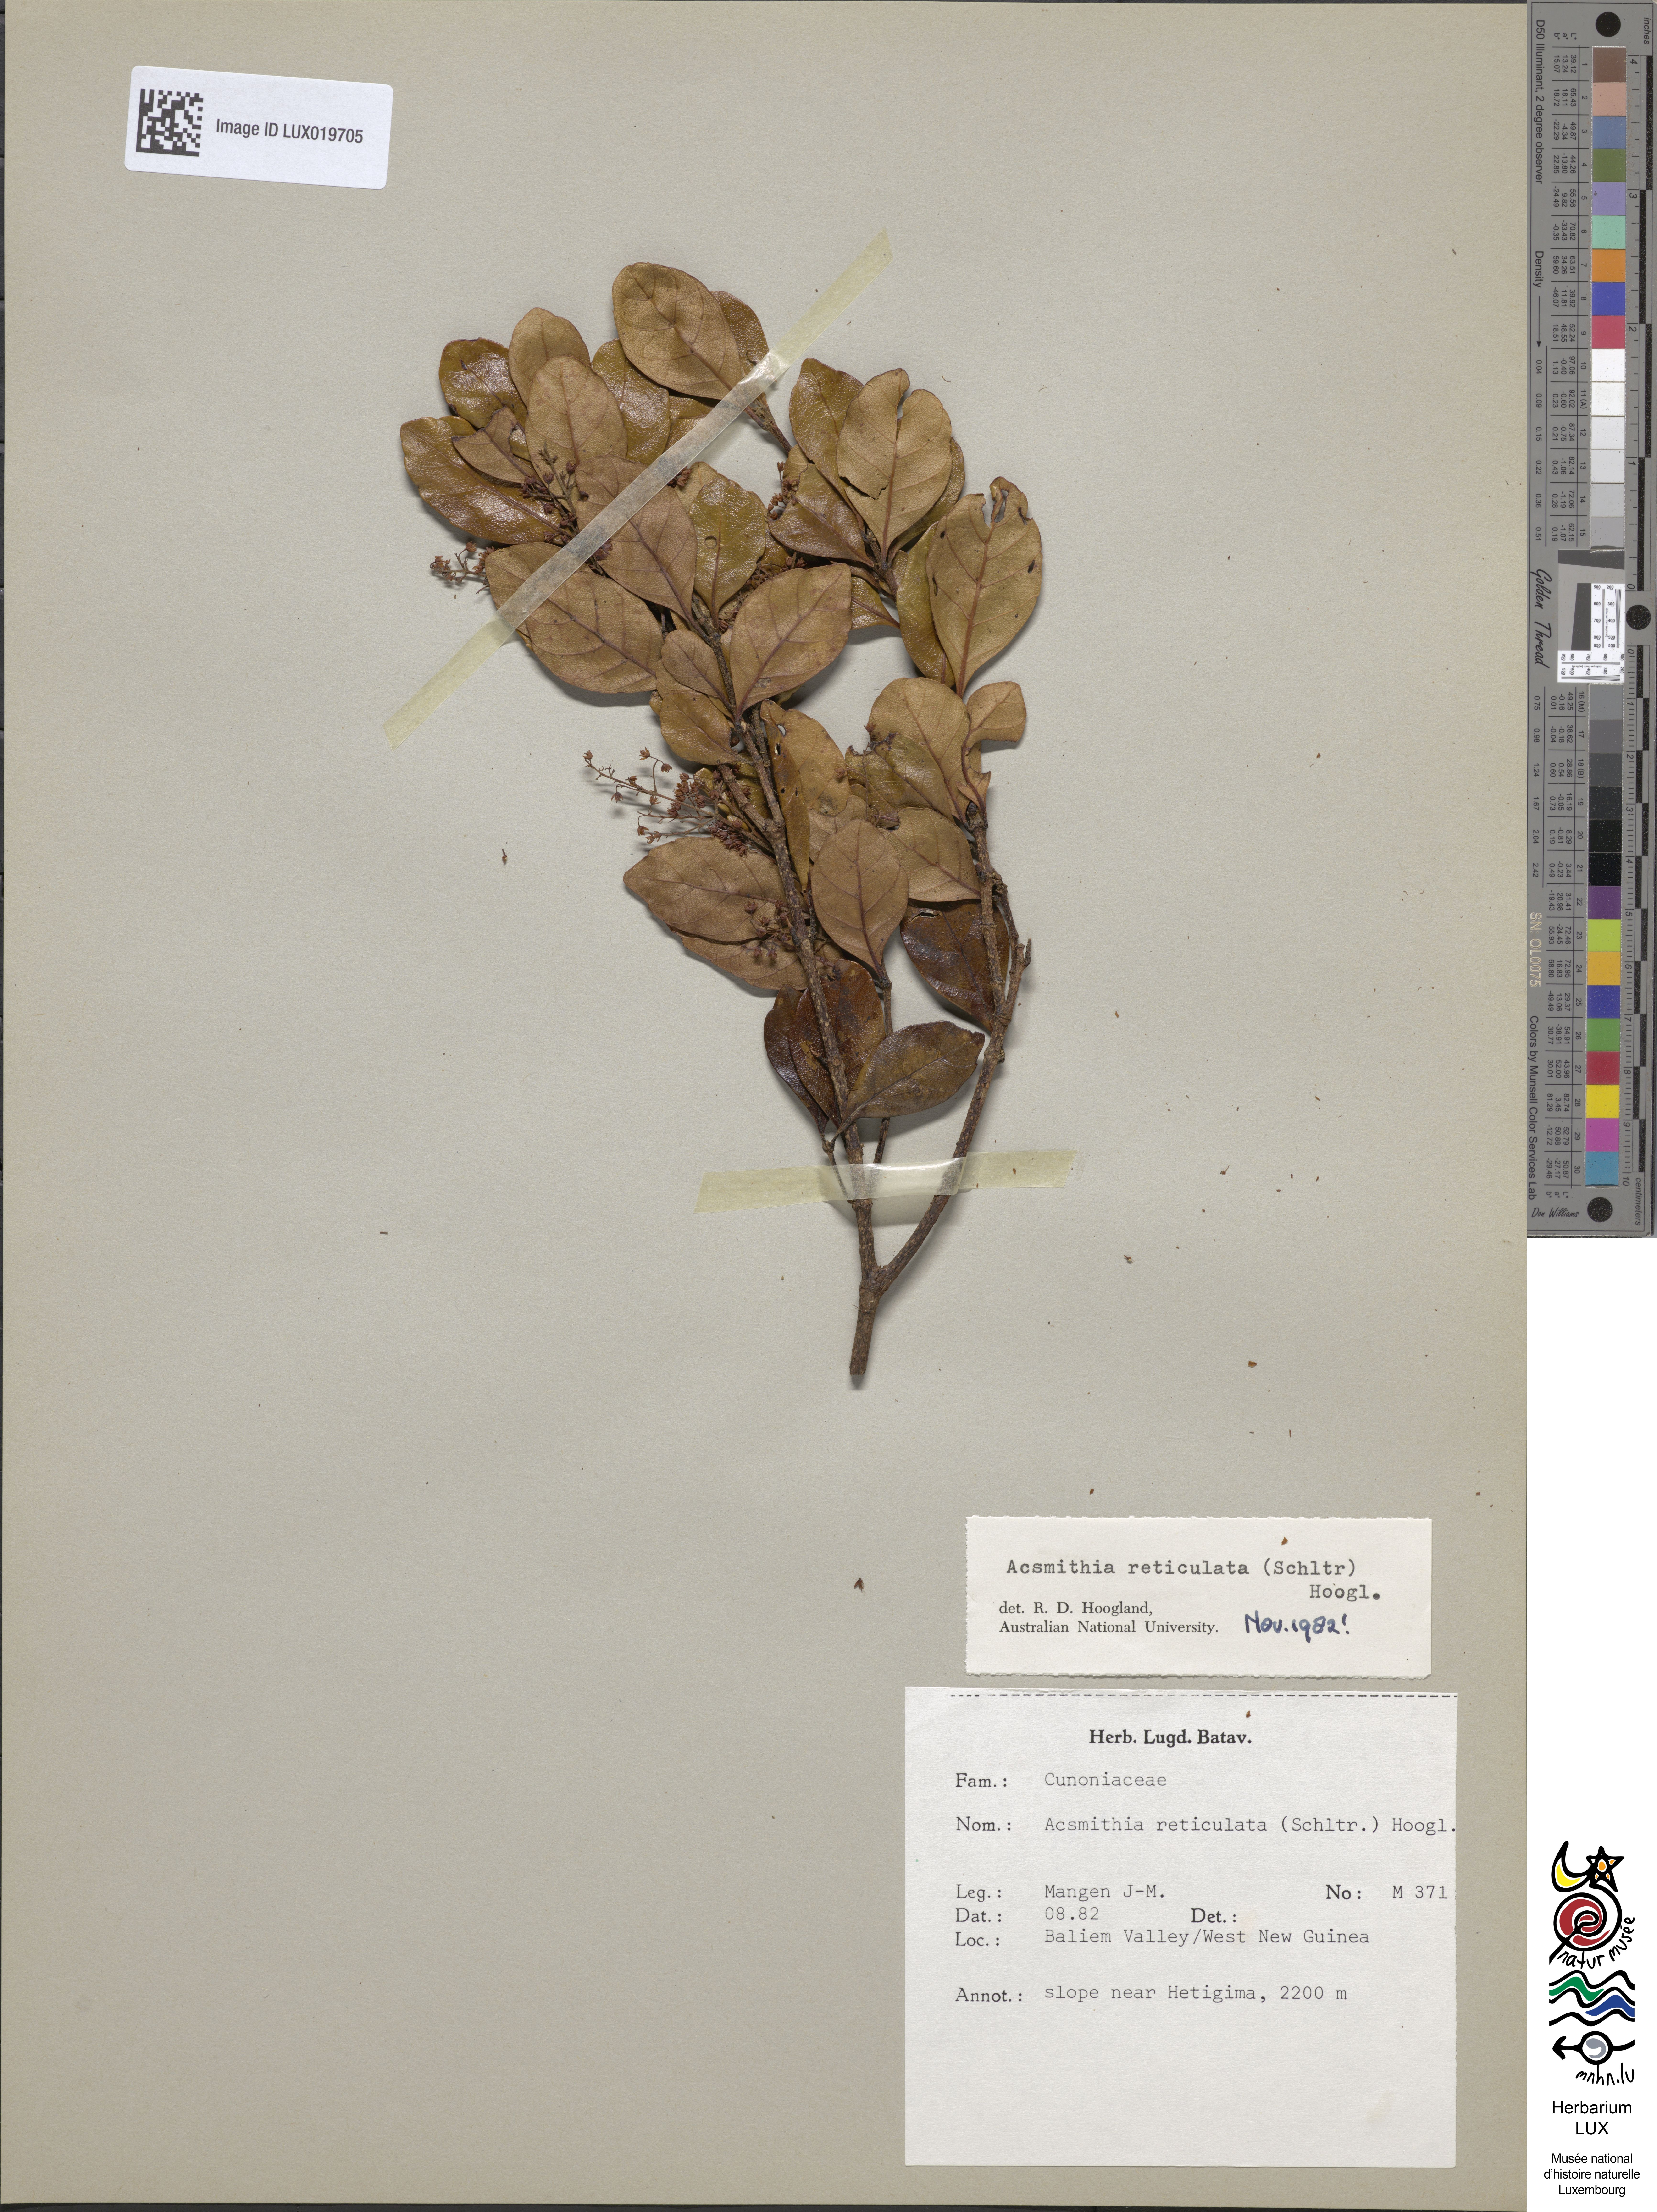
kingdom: Plantae
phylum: Tracheophyta
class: Magnoliopsida
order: Oxalidales
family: Cunoniaceae
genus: Spiraeanthemum
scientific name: Spiraeanthemum reticulatum
